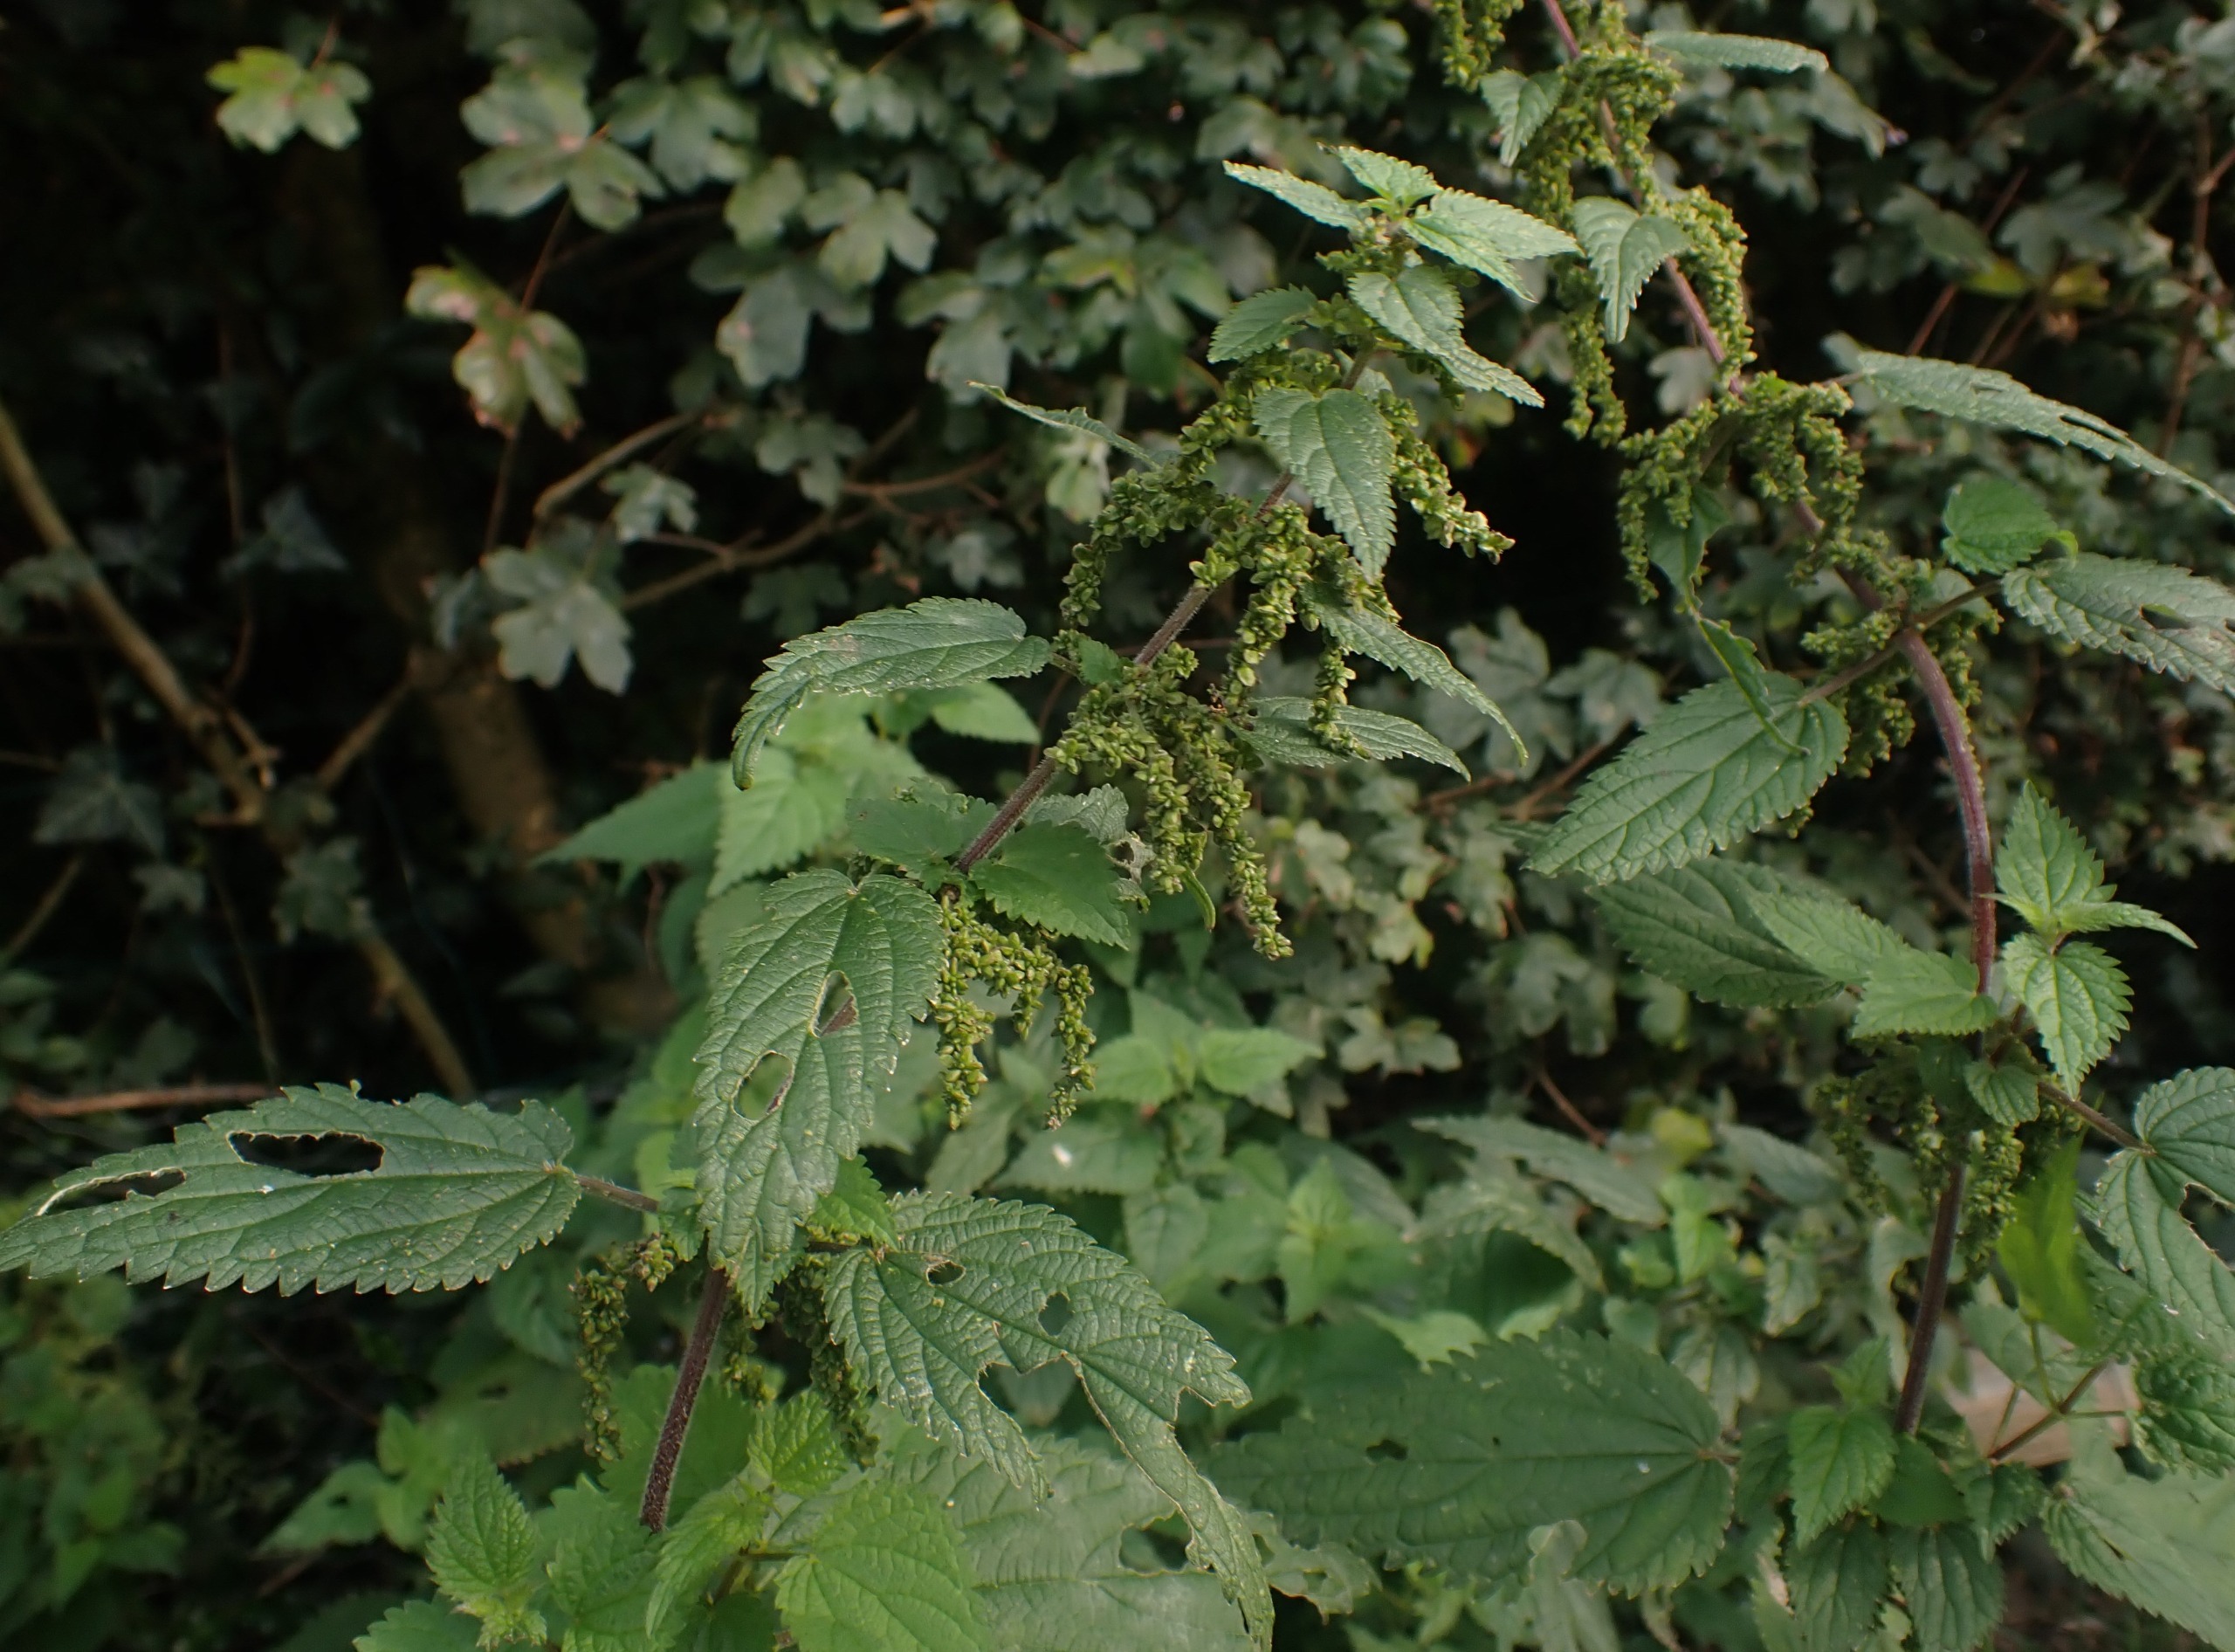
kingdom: Plantae
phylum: Tracheophyta
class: Magnoliopsida
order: Rosales
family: Urticaceae
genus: Urtica
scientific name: Urtica dioica
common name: Stor nælde
